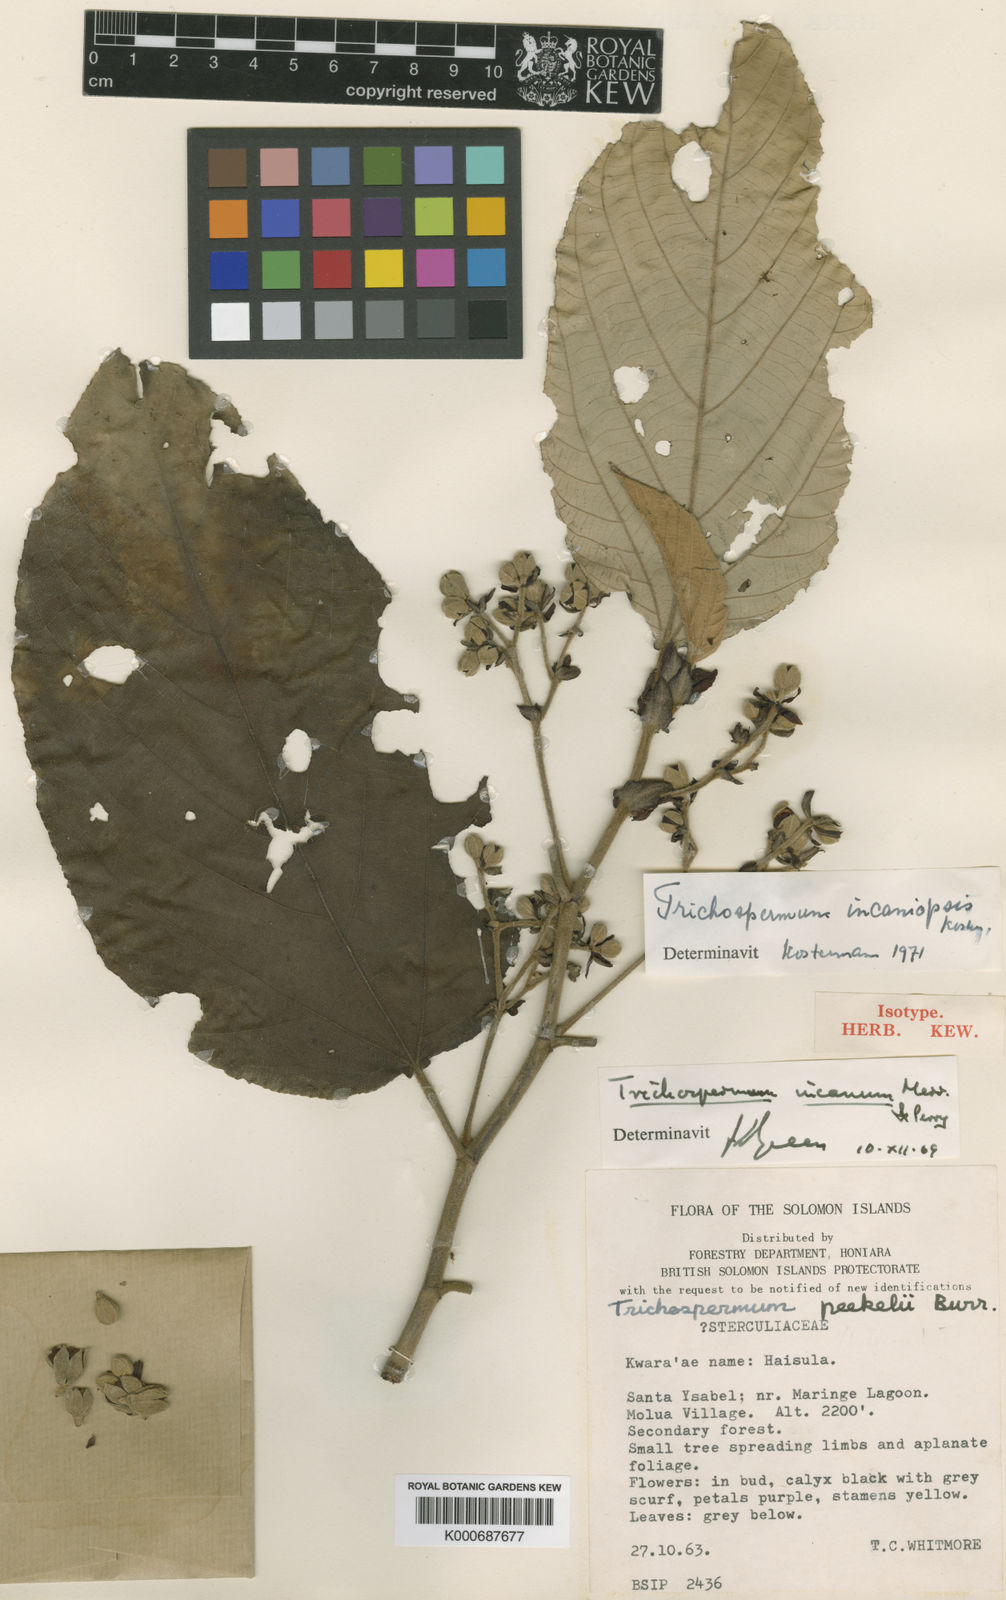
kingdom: Plantae
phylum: Tracheophyta
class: Magnoliopsida
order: Malvales
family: Malvaceae
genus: Trichospermum
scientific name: Trichospermum incaniopsis
